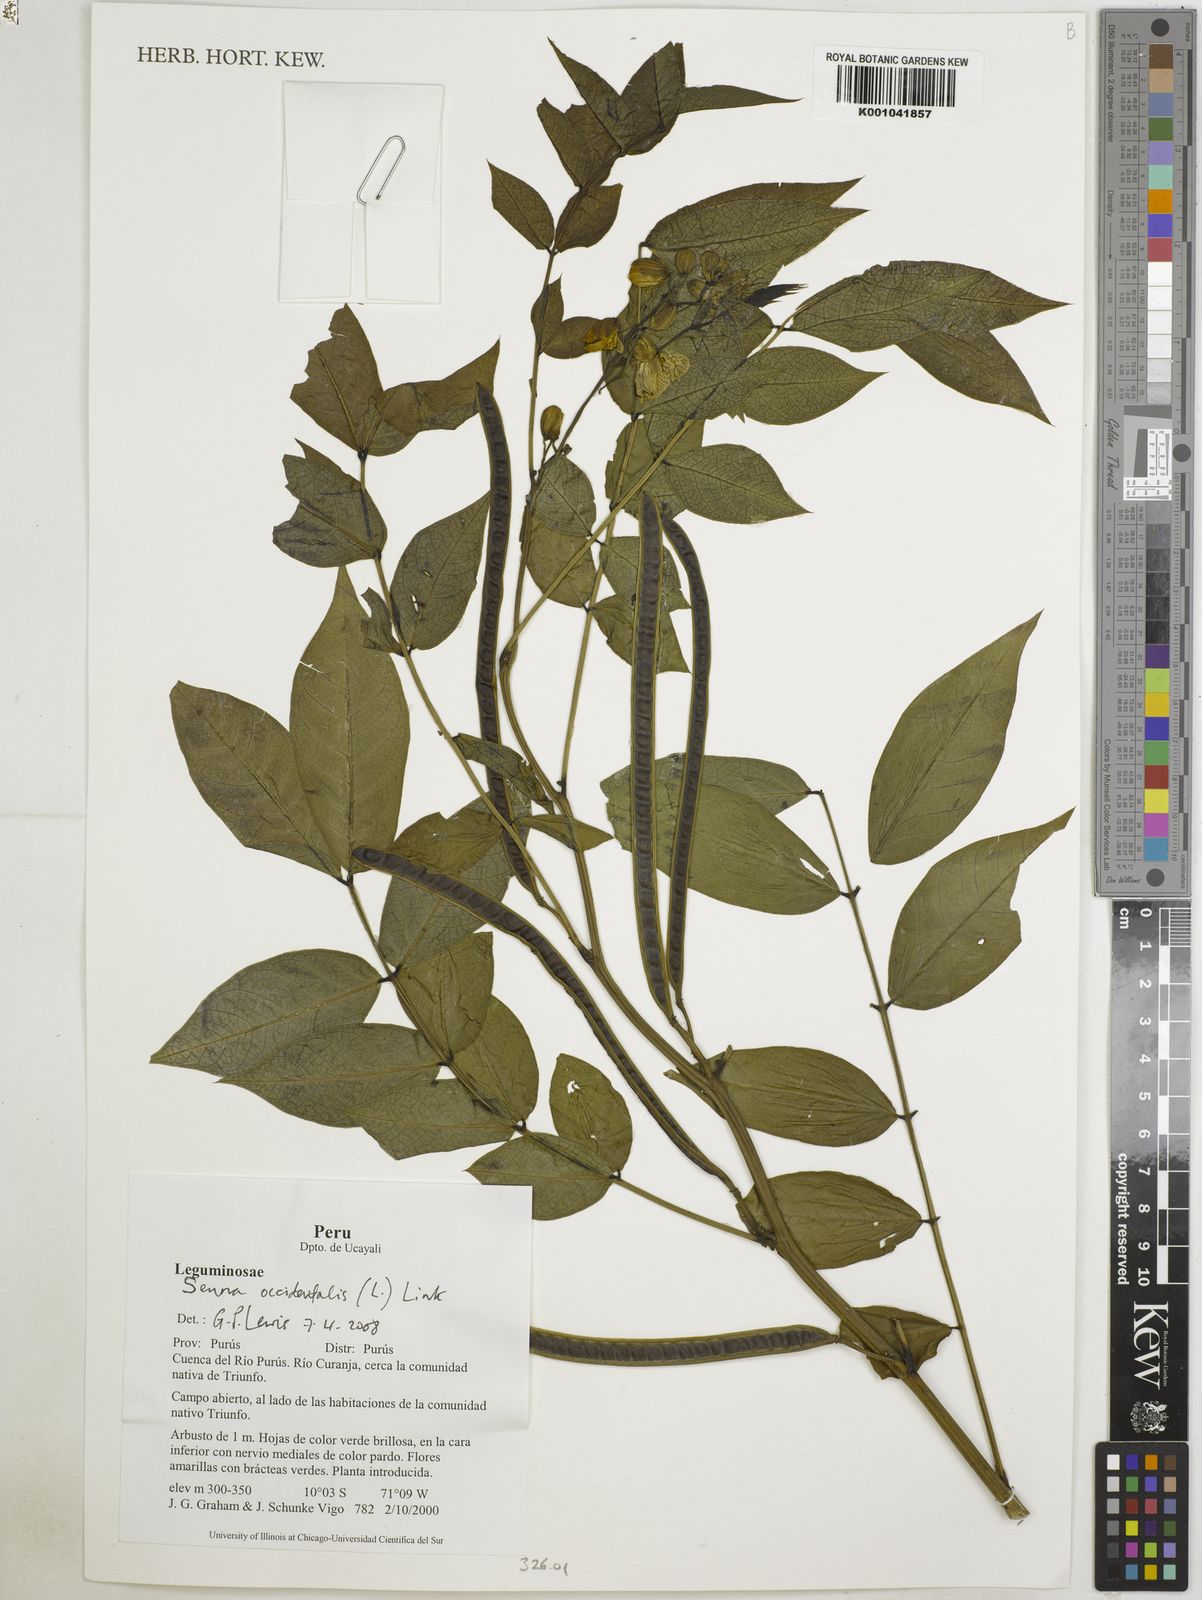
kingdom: Plantae
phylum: Tracheophyta
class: Magnoliopsida
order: Fabales
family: Fabaceae
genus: Senna
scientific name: Senna occidentalis
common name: Septicweed
